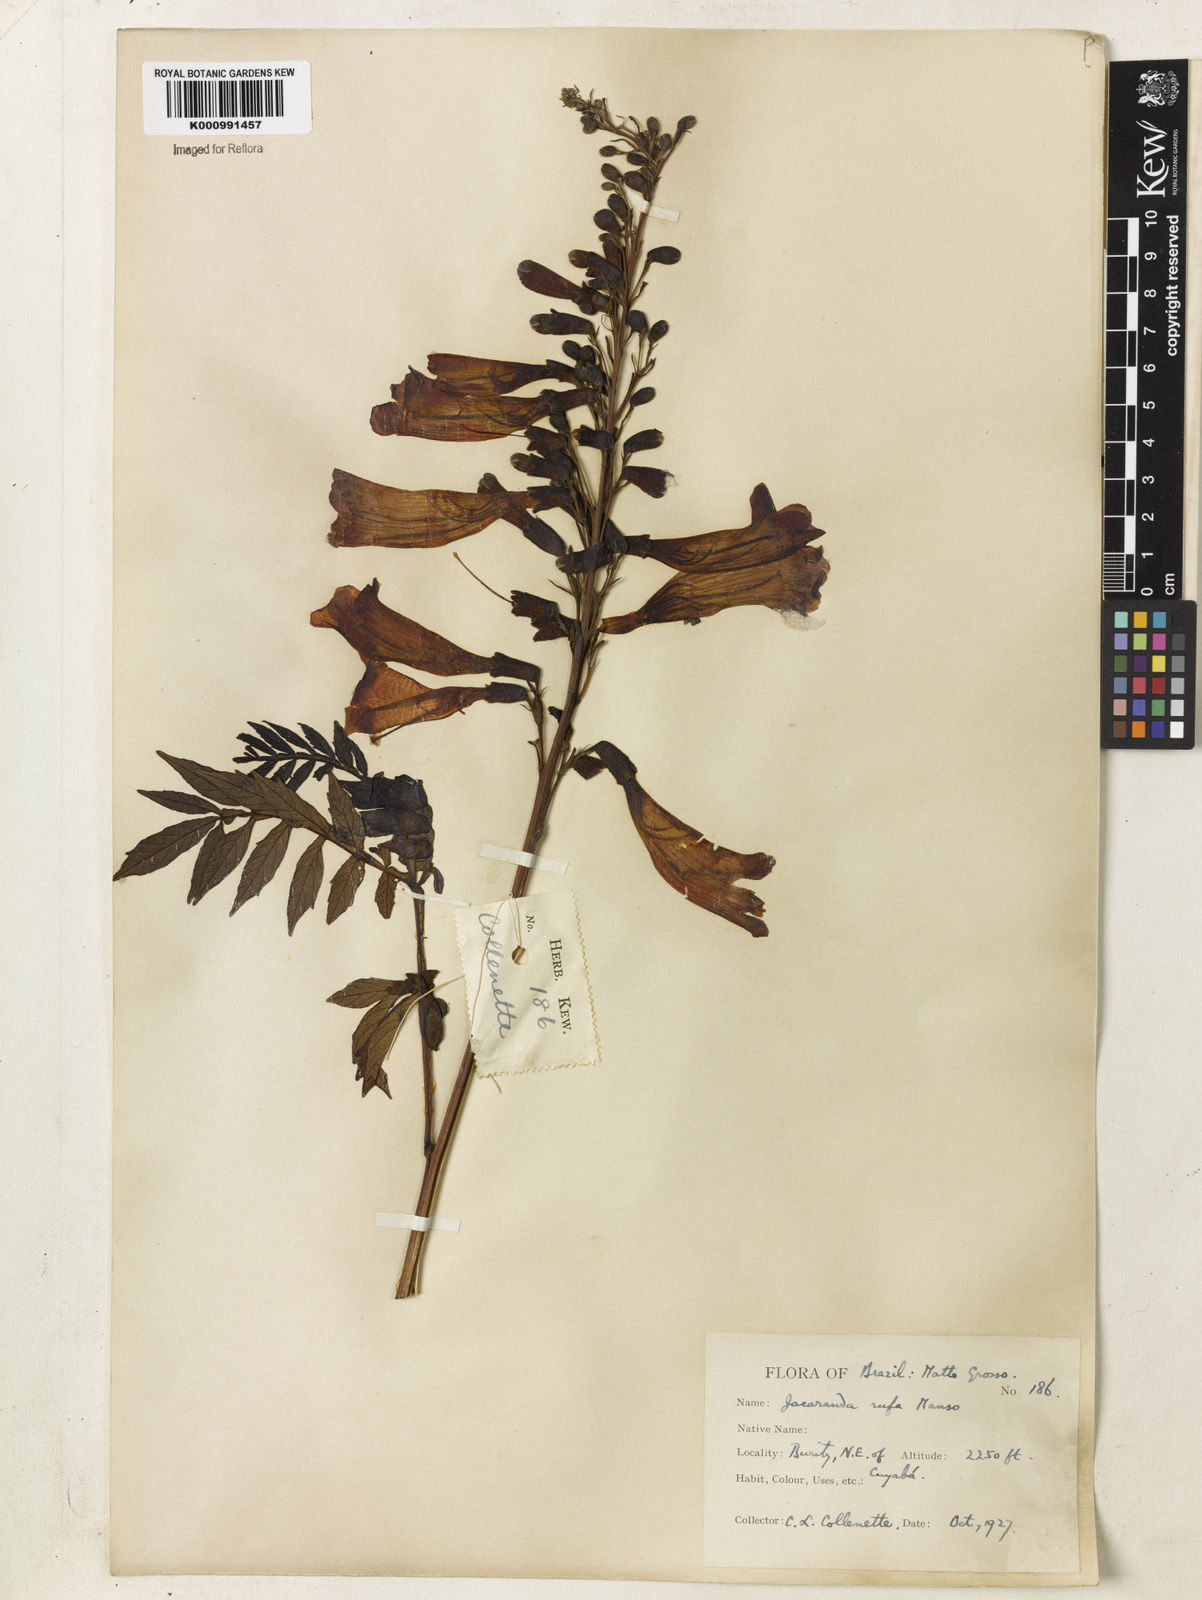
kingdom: Plantae
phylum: Tracheophyta
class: Magnoliopsida
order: Lamiales
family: Bignoniaceae
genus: Jacaranda
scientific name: Jacaranda rufa
